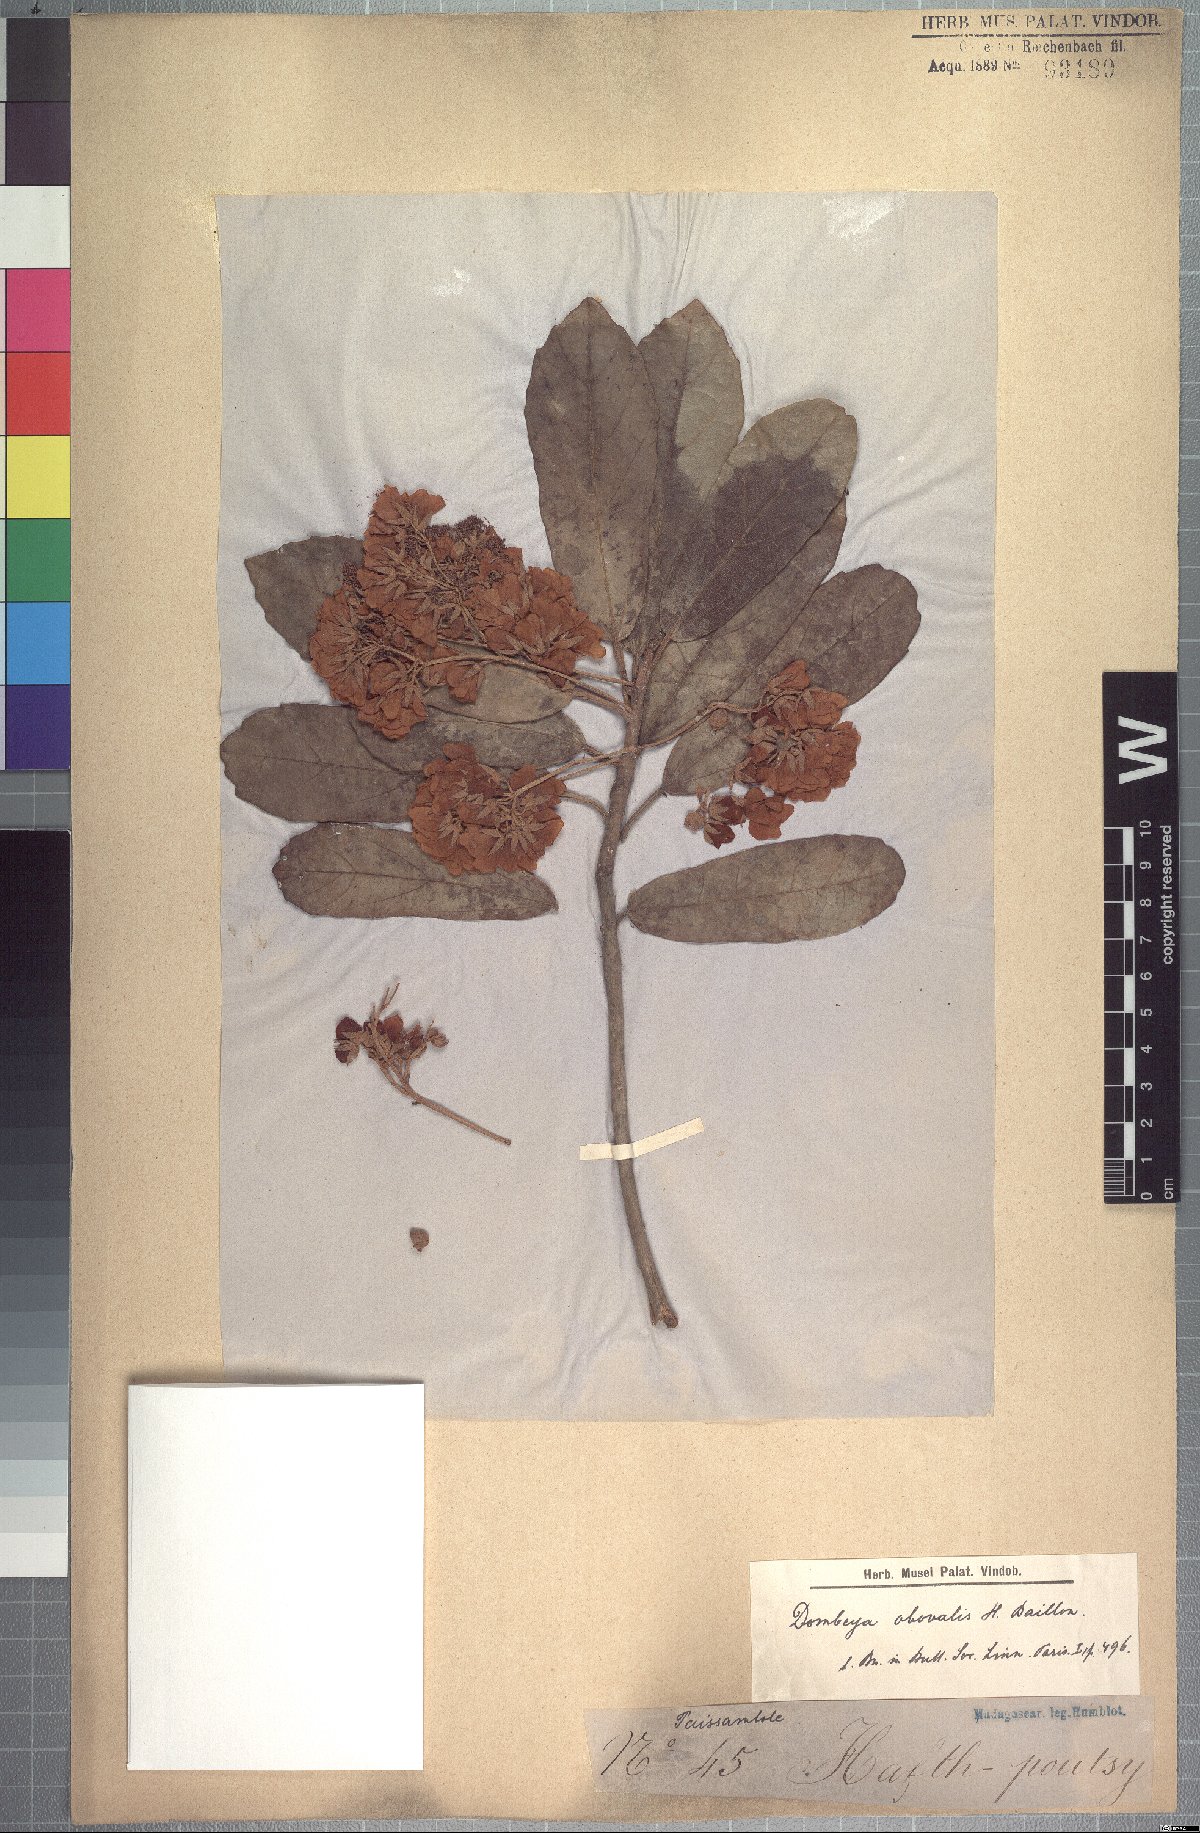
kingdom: Plantae
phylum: Tracheophyta
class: Magnoliopsida
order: Malvales
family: Malvaceae
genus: Dombeya
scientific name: Dombeya obovalis
